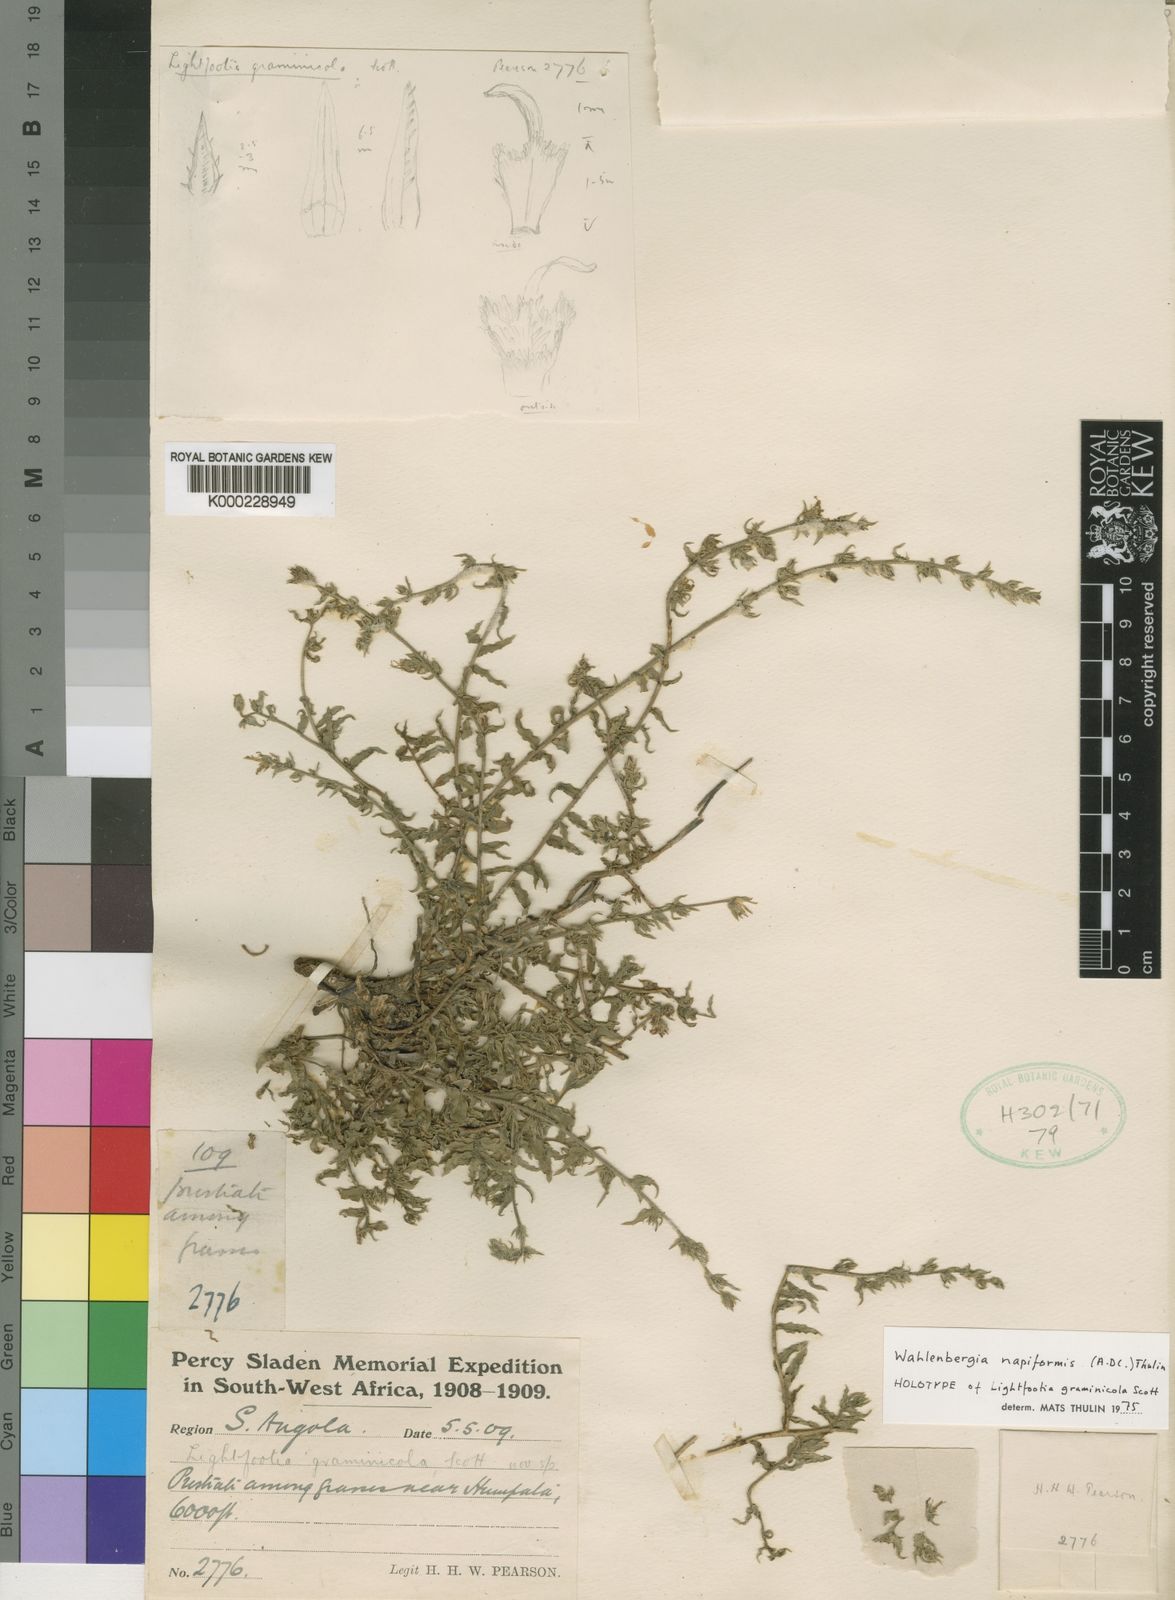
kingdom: Plantae
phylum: Tracheophyta
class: Magnoliopsida
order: Asterales
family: Campanulaceae
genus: Wahlenbergia
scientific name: Wahlenbergia napiformis
